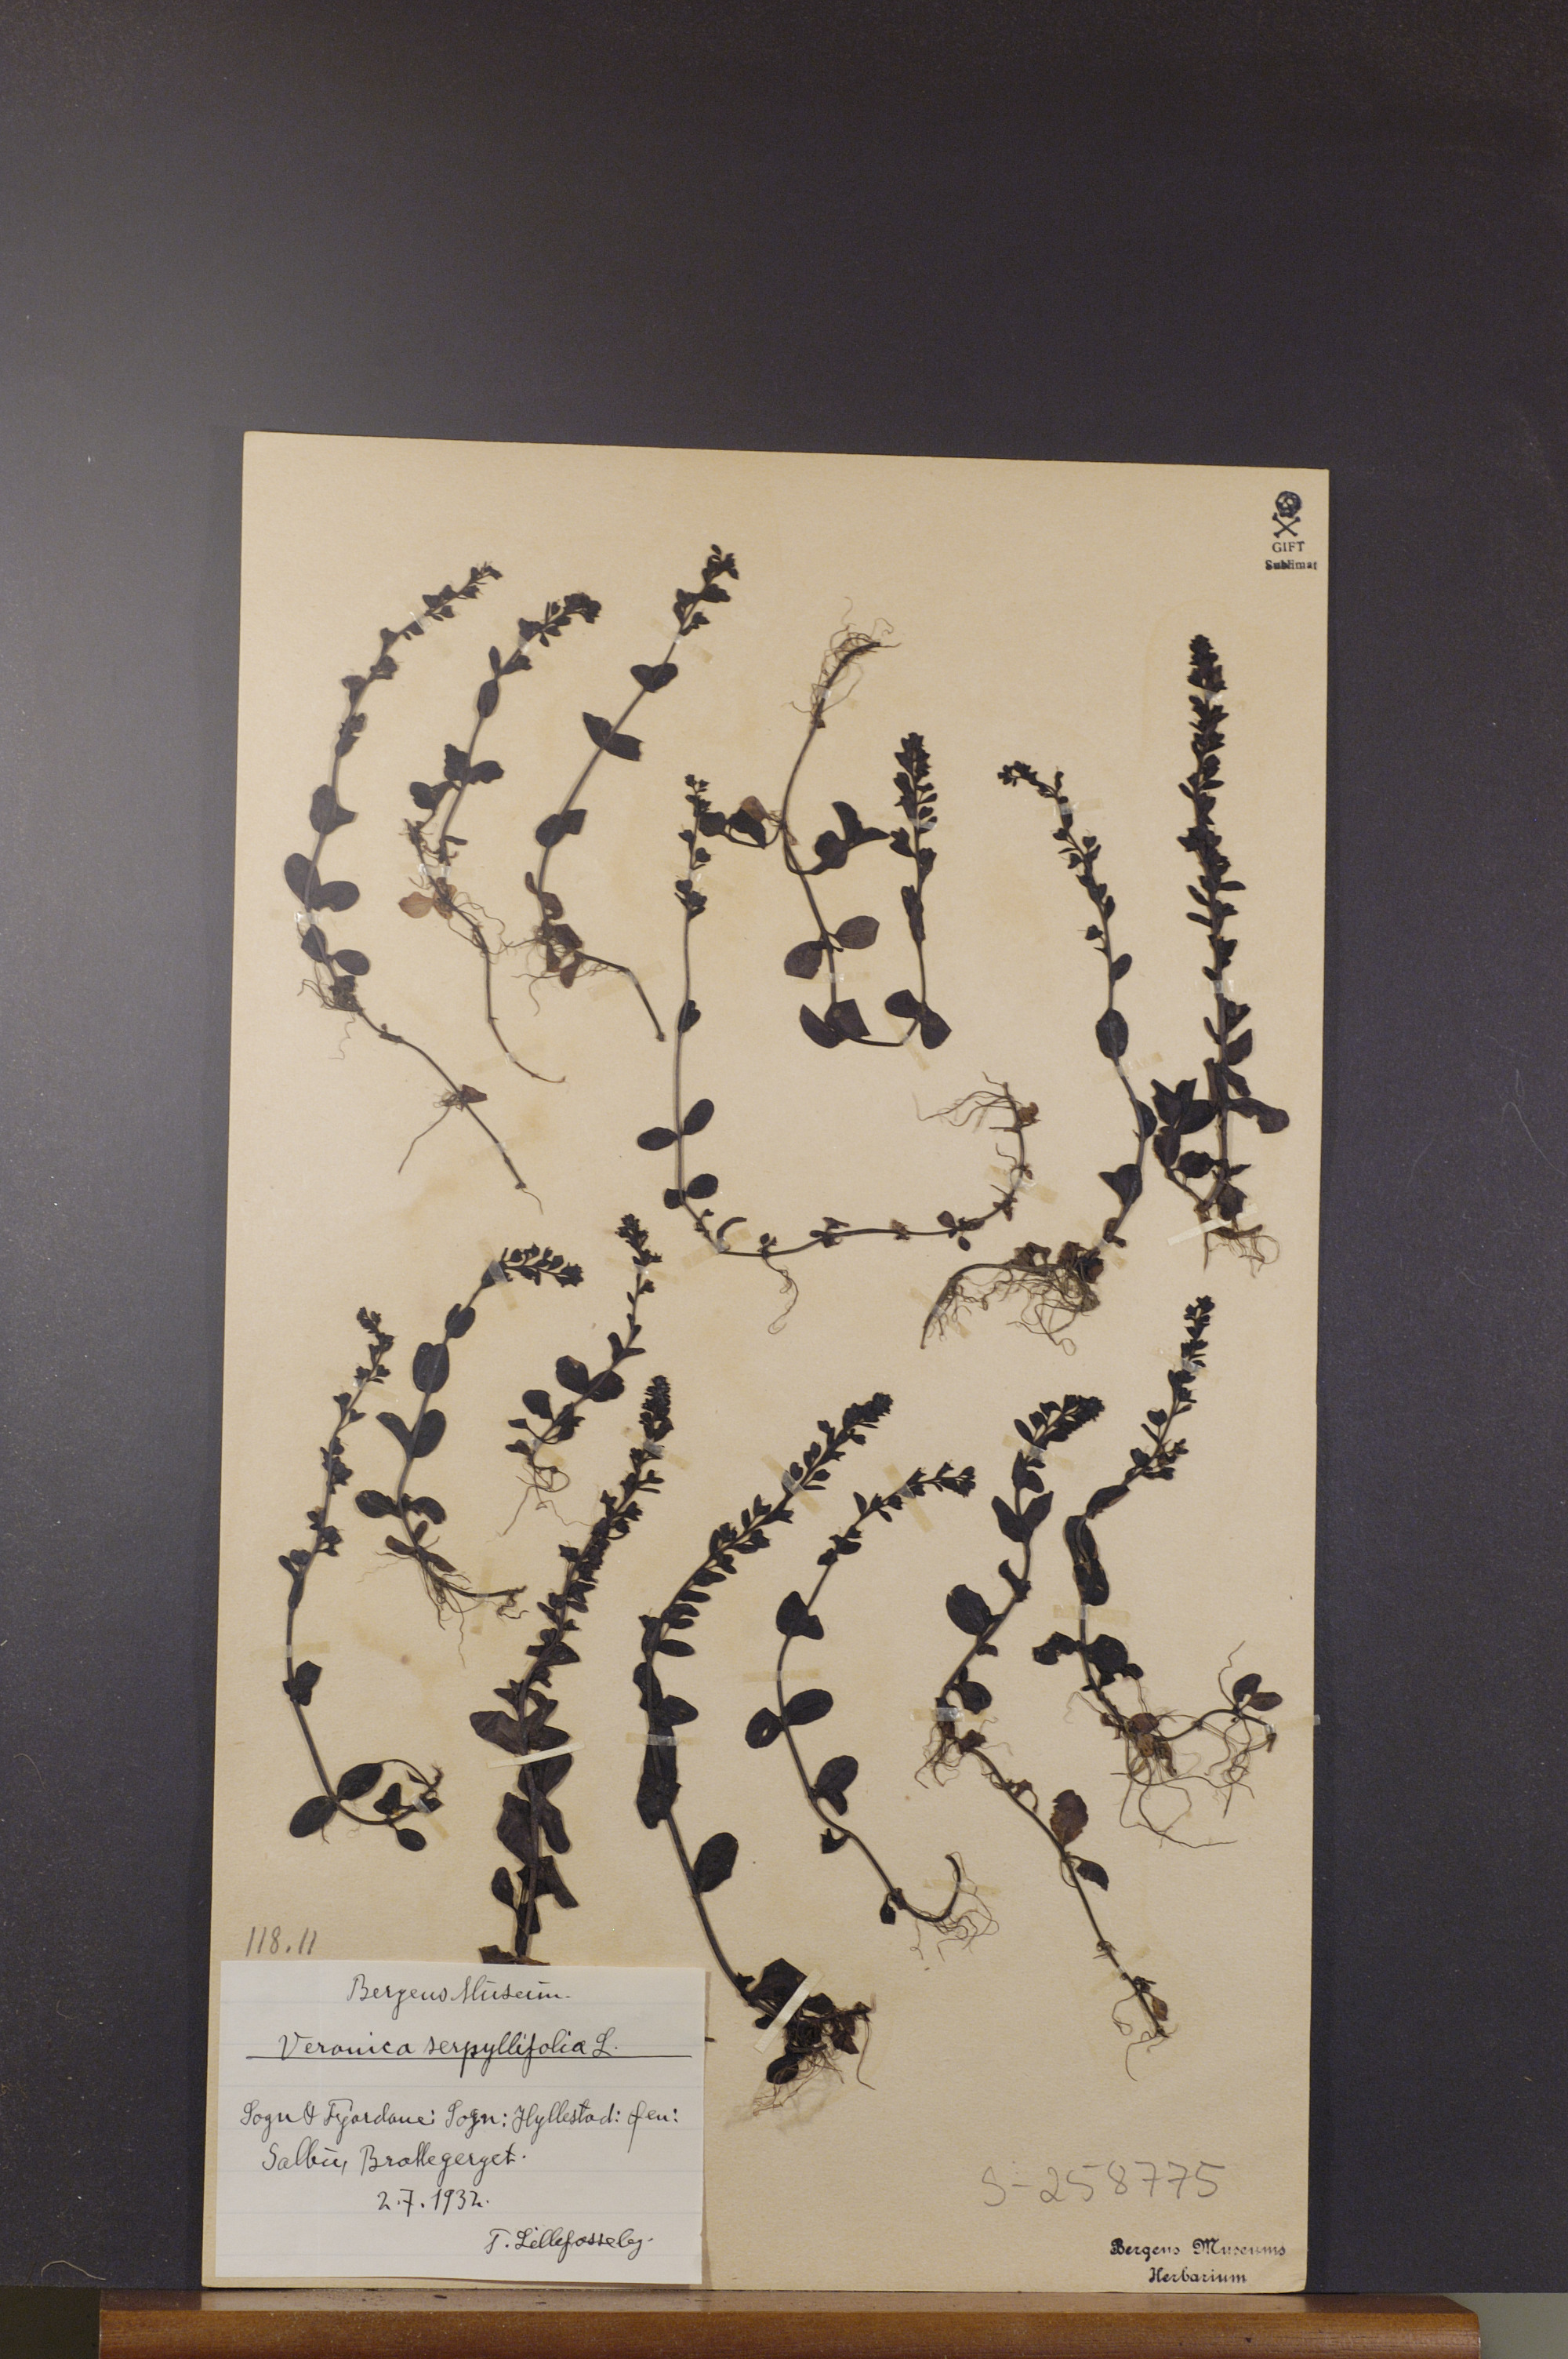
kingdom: Plantae
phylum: Tracheophyta
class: Magnoliopsida
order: Lamiales
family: Plantaginaceae
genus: Veronica
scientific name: Veronica serpyllifolia
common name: Thyme-leaved speedwell
